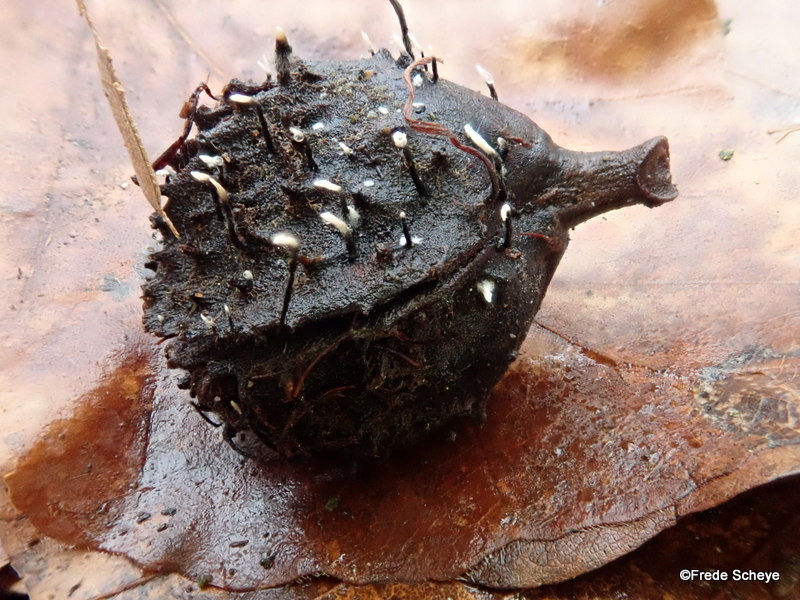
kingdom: Fungi
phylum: Ascomycota
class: Sordariomycetes
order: Xylariales
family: Xylariaceae
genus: Xylaria
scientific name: Xylaria carpophila
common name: bogskål-stødsvamp
